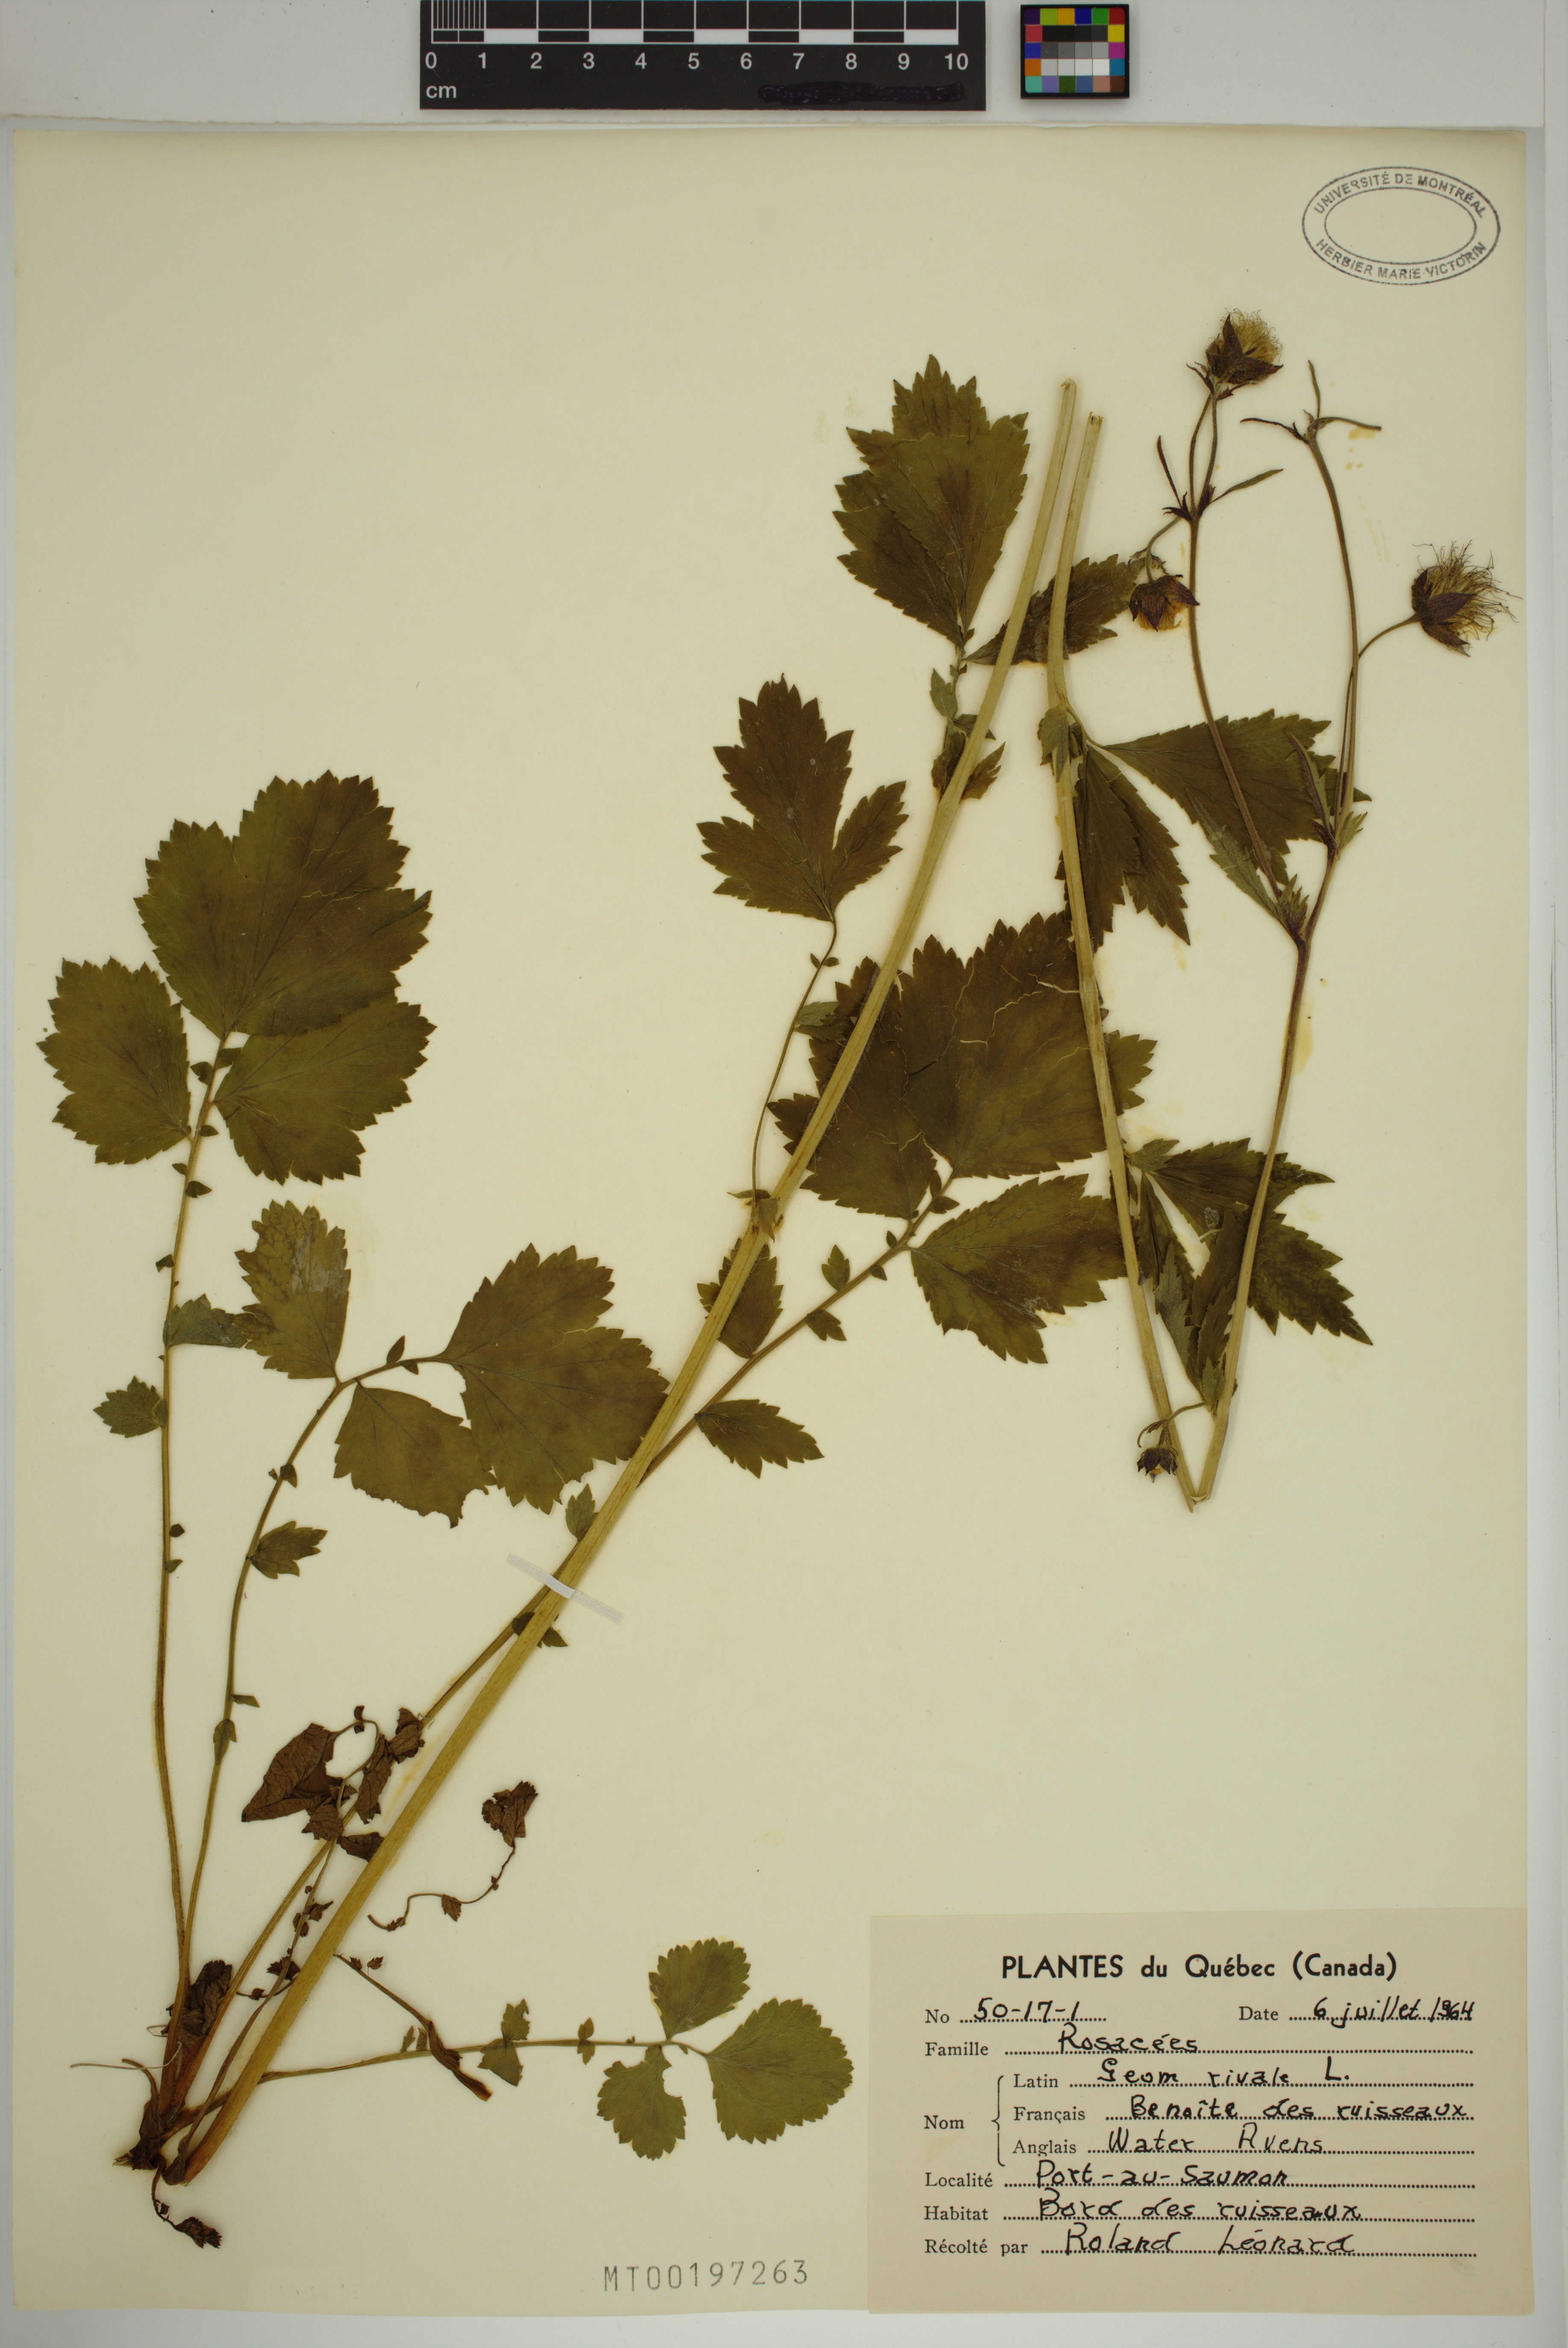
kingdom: Plantae
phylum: Tracheophyta
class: Magnoliopsida
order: Rosales
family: Rosaceae
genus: Geum
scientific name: Geum rivale
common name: Water avens
